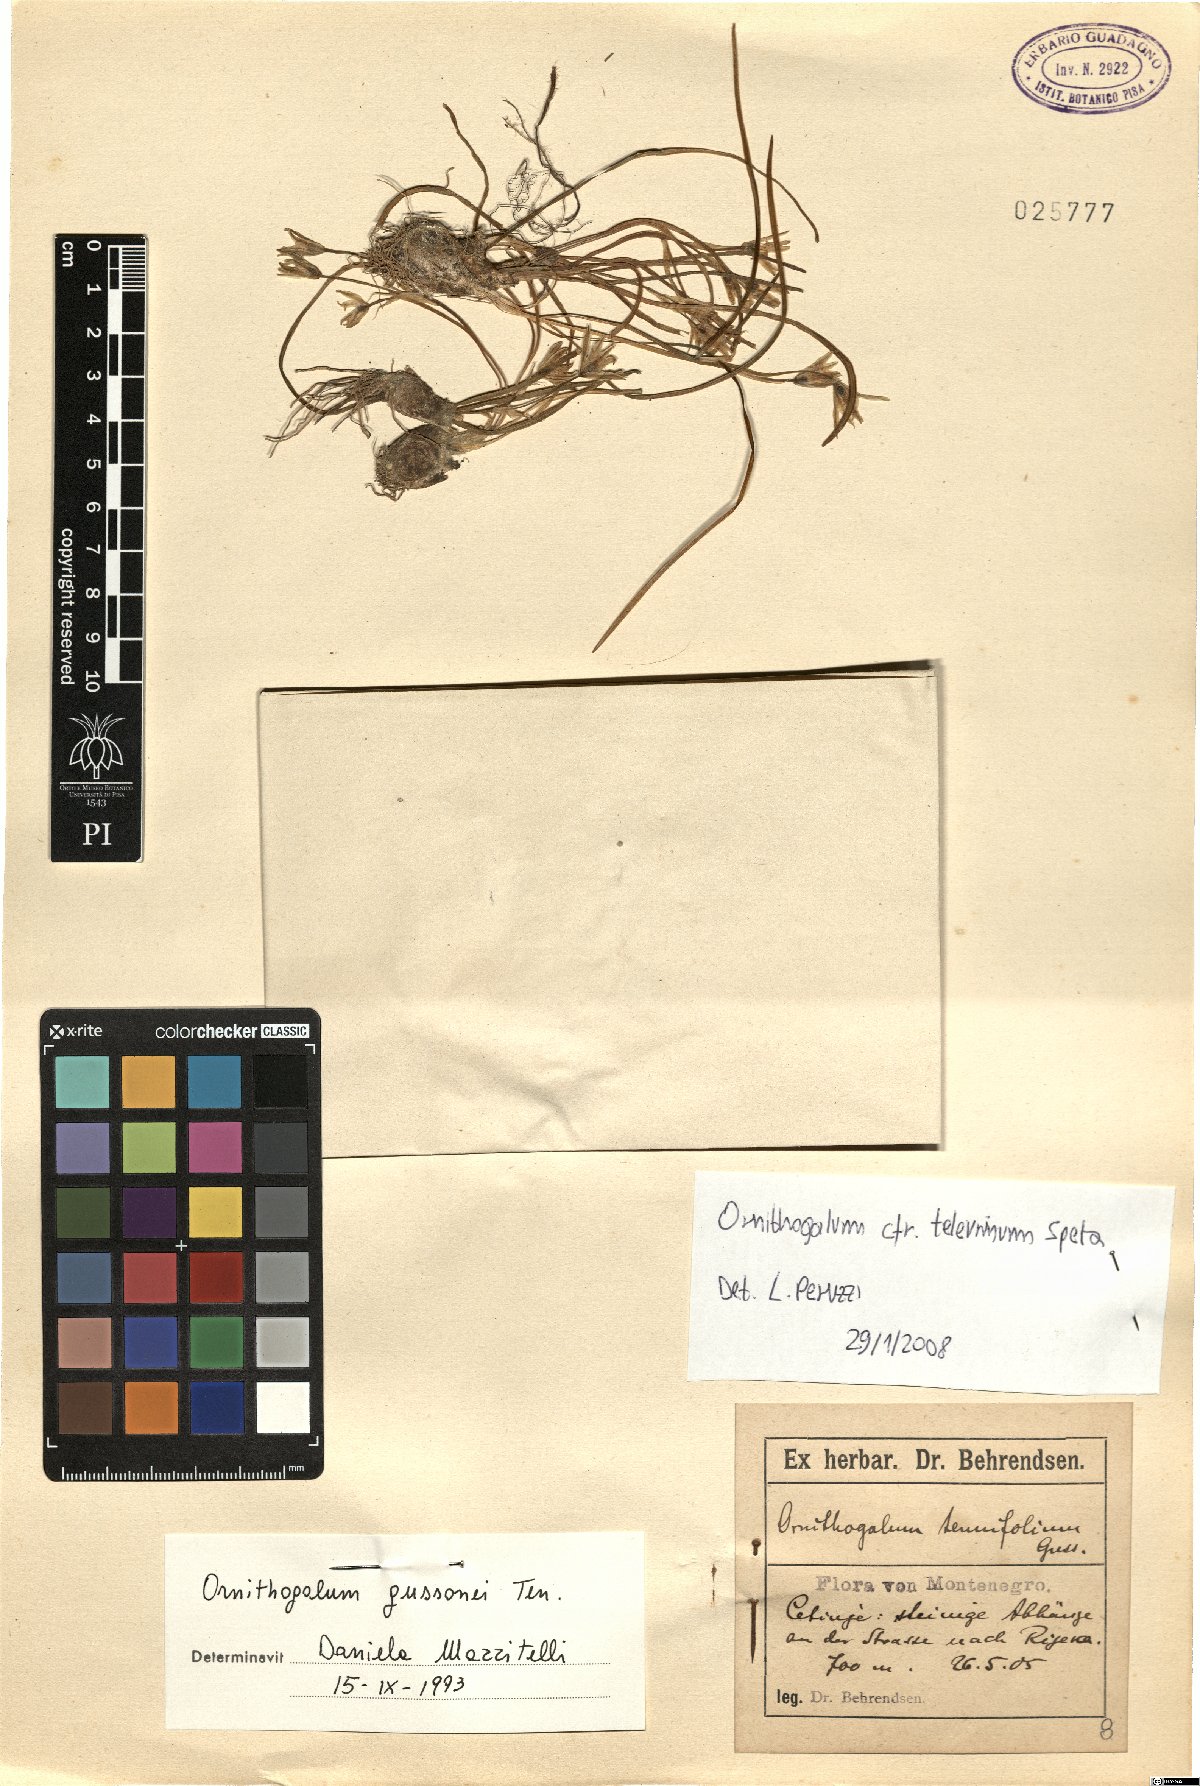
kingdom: Plantae
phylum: Tracheophyta
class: Liliopsida
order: Asparagales
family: Asparagaceae
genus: Ornithogalum
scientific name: Ornithogalum televrinum
